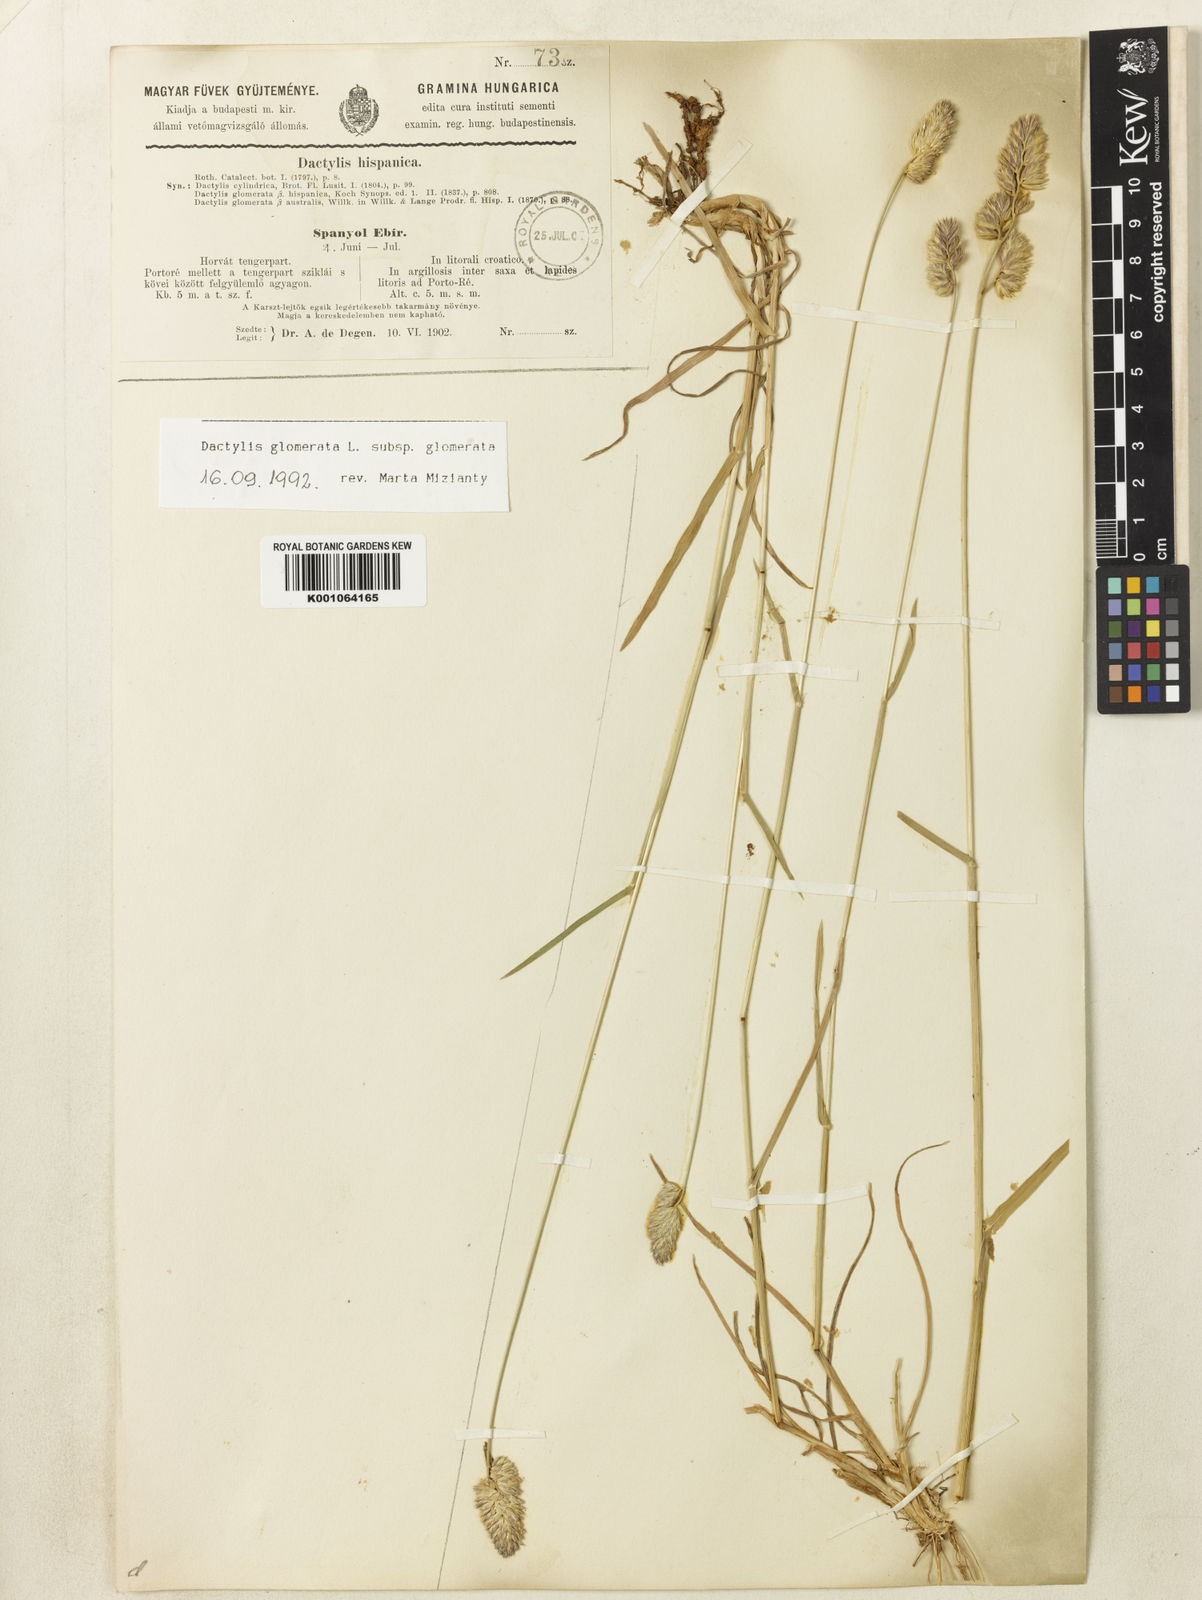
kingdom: Plantae
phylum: Tracheophyta
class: Liliopsida
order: Poales
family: Poaceae
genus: Dactylis
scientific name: Dactylis glomerata
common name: Orchardgrass
